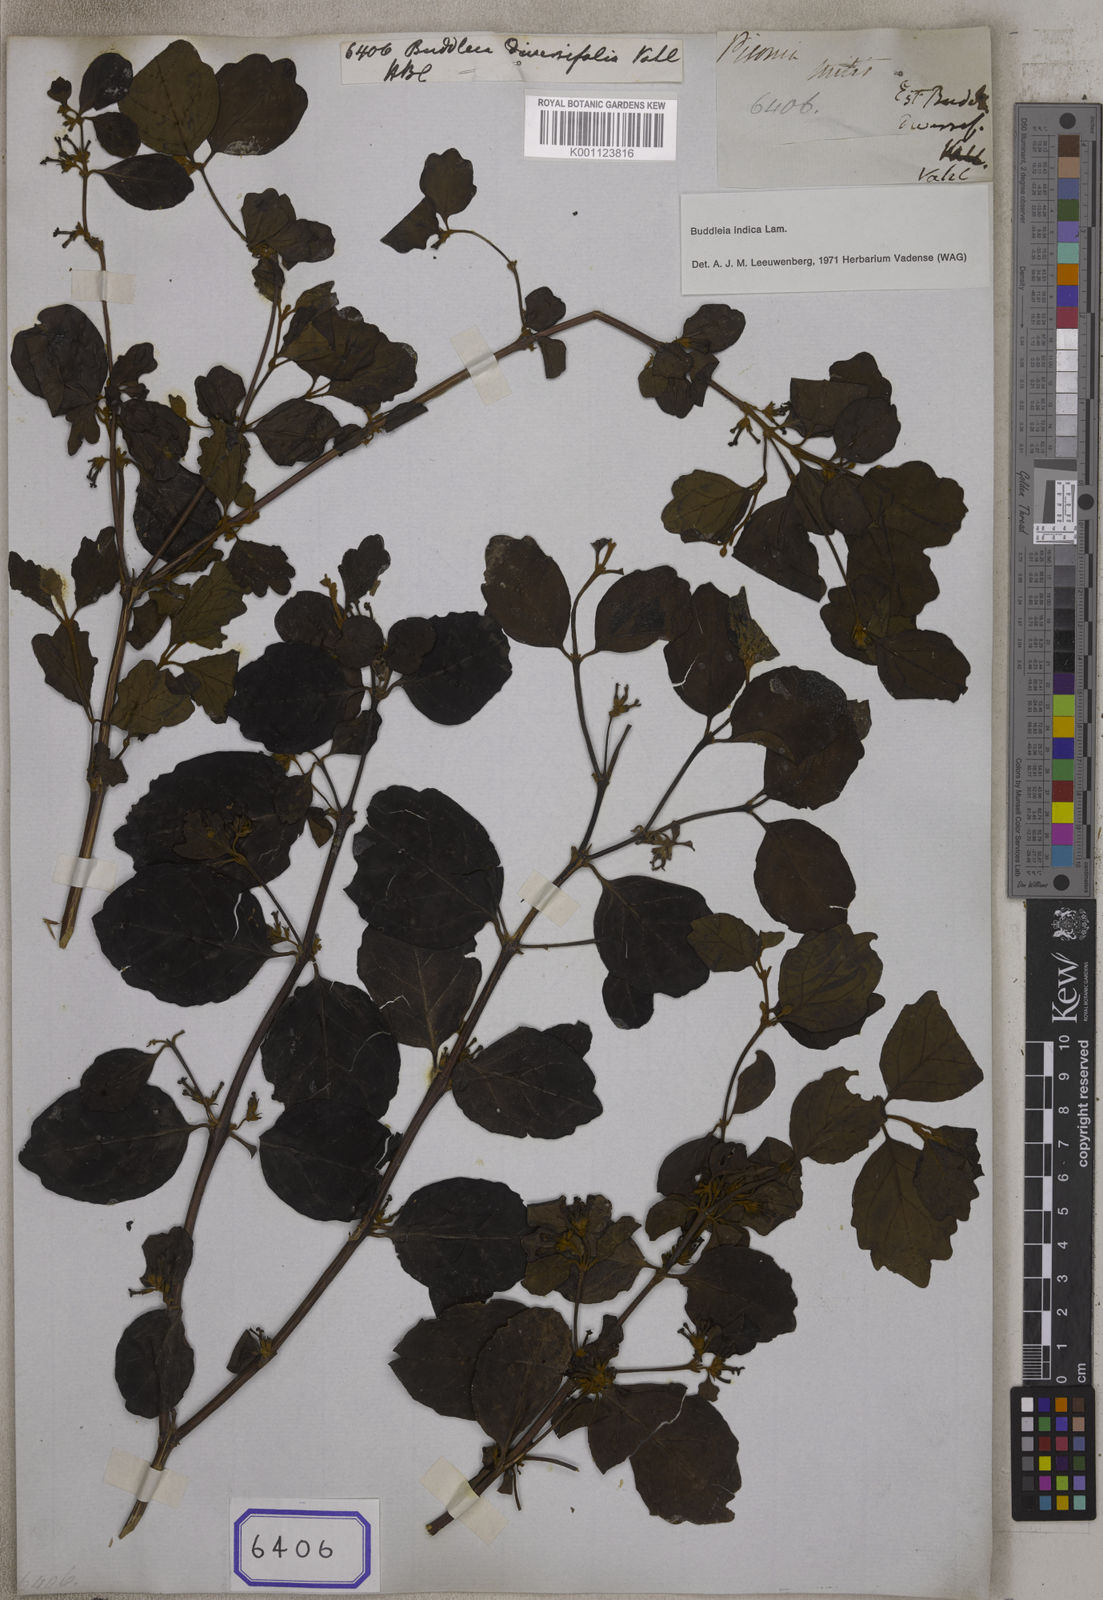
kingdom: Plantae
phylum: Tracheophyta
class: Magnoliopsida
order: Lamiales
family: Scrophulariaceae
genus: Buddleja
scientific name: Buddleja indica
